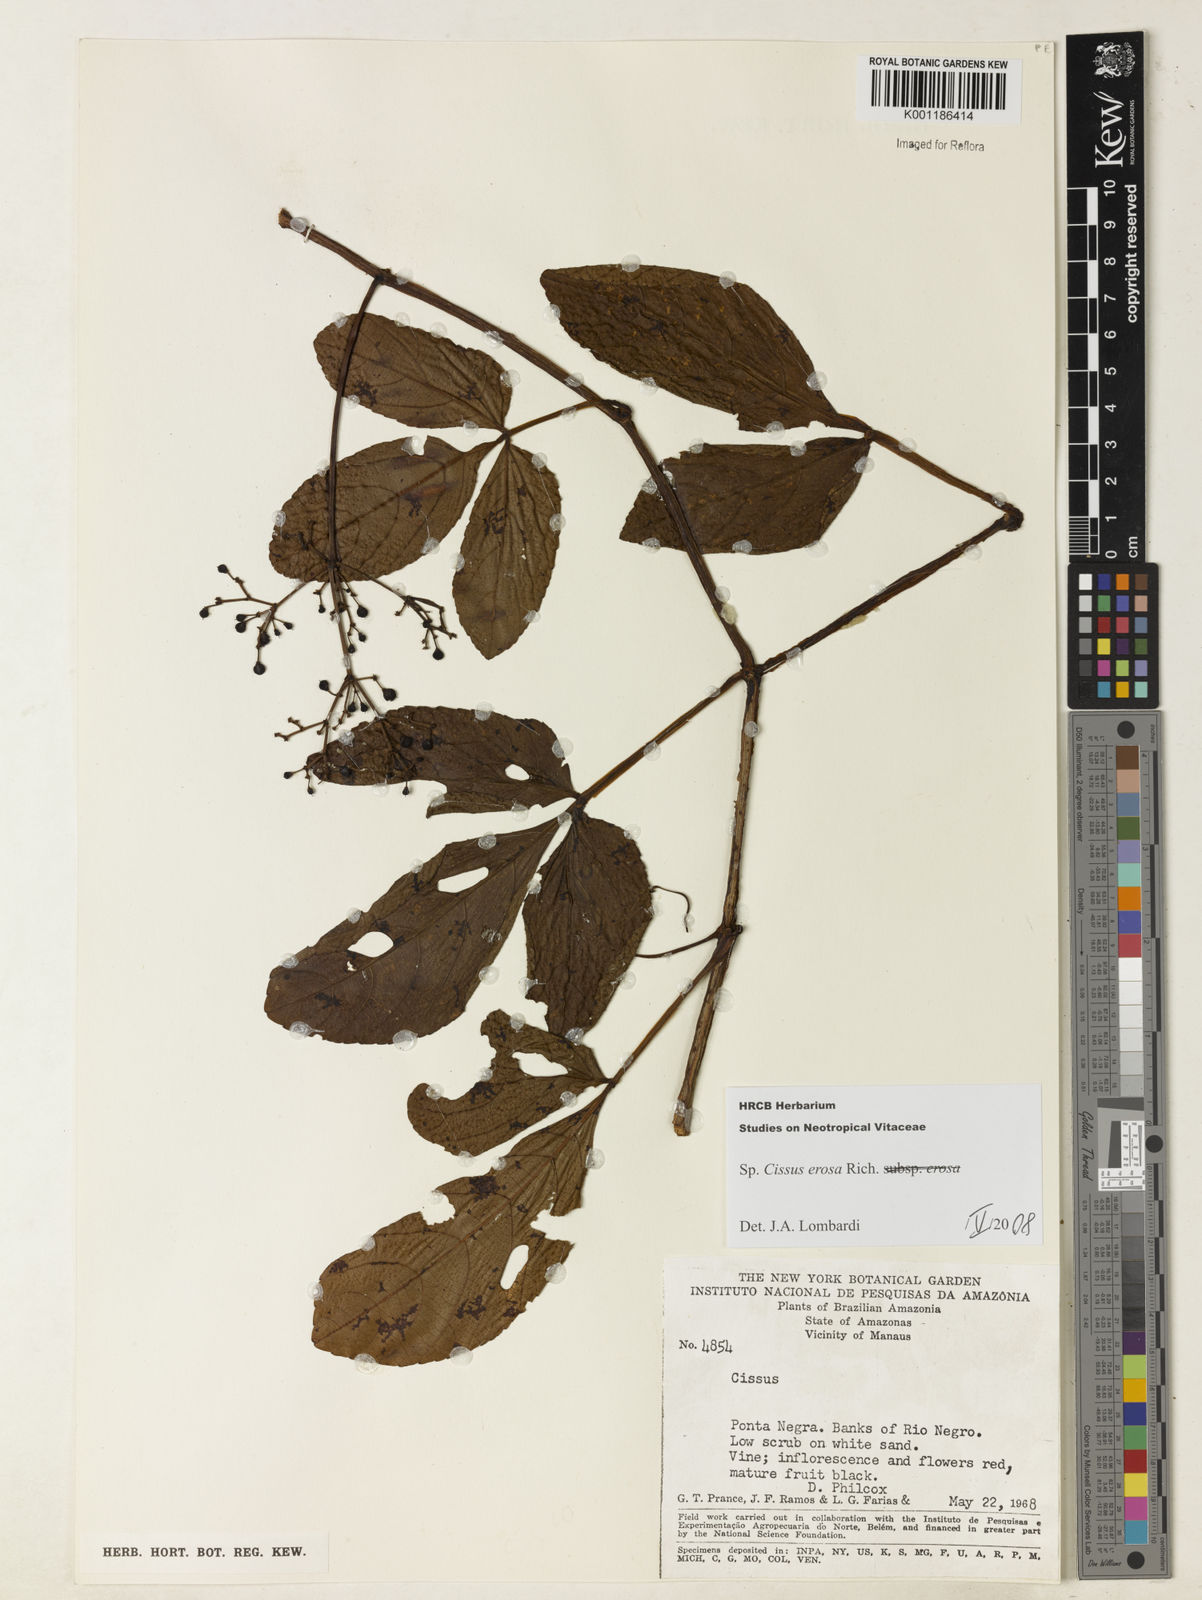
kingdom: Plantae
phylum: Tracheophyta
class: Magnoliopsida
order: Vitales
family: Vitaceae
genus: Cissus
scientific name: Cissus erosa
